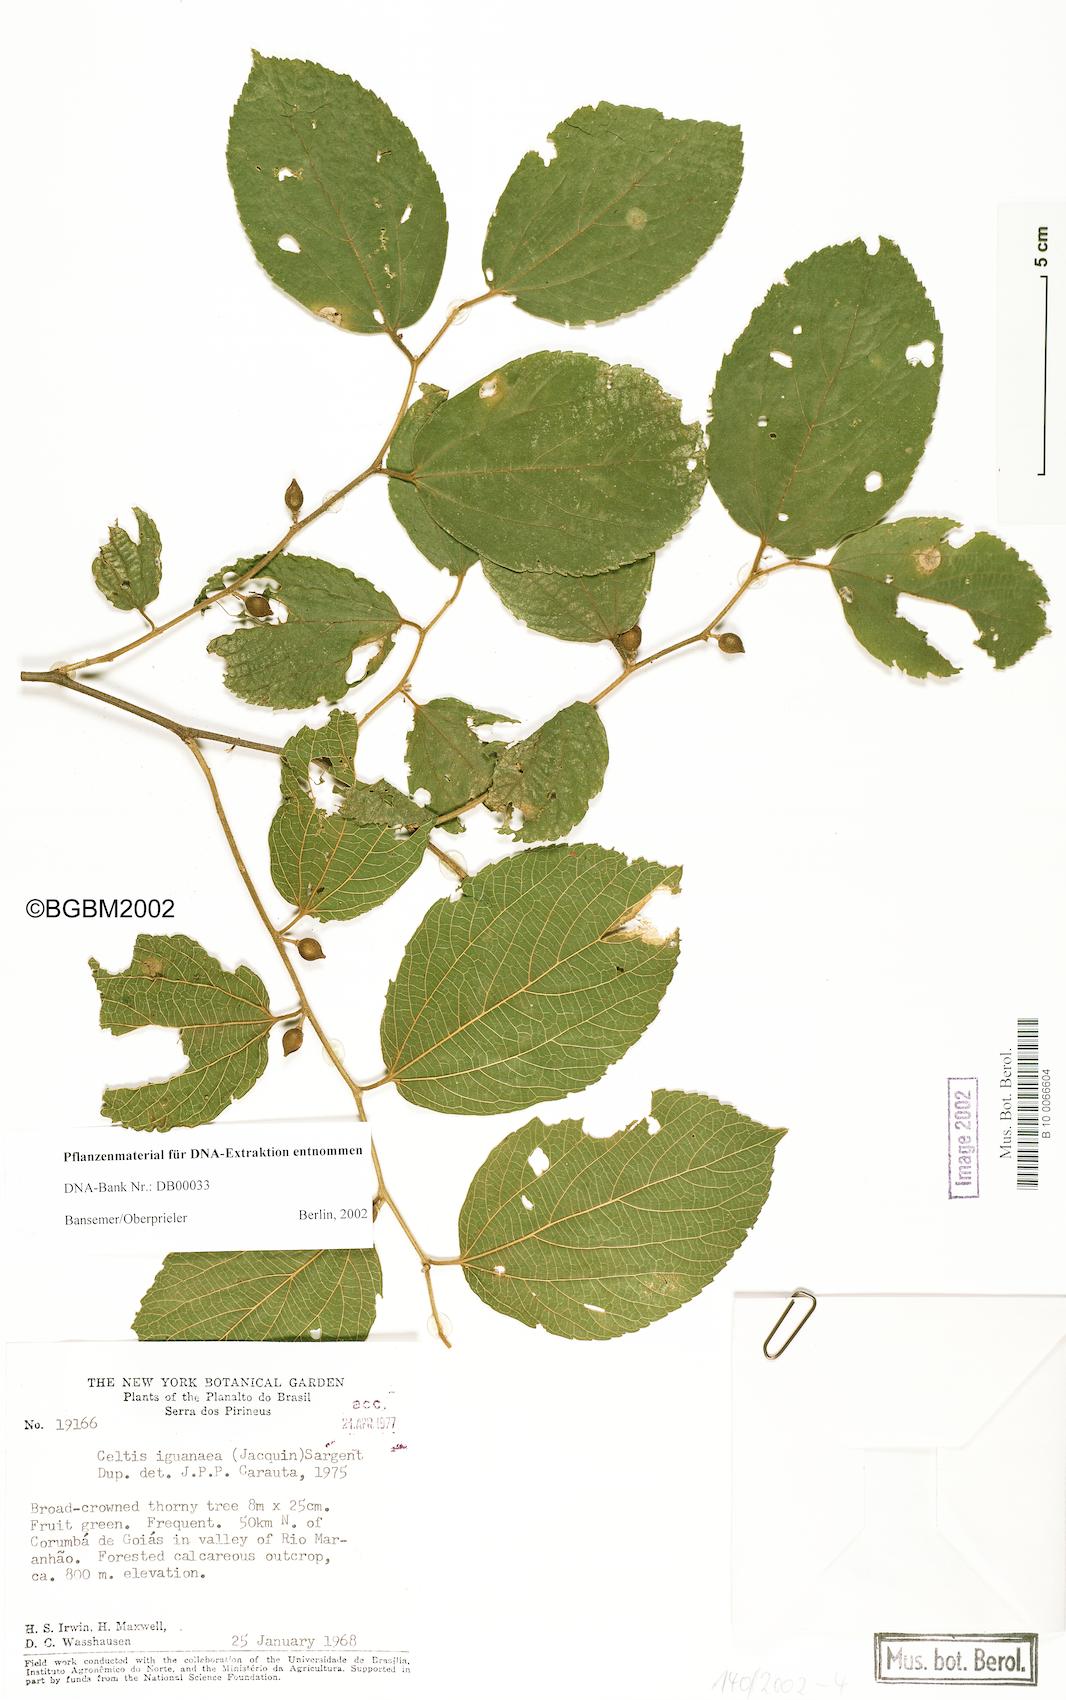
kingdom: Plantae
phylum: Tracheophyta
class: Magnoliopsida
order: Rosales
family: Cannabaceae
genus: Celtis
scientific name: Celtis iguanaea
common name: Iguana hackberry
